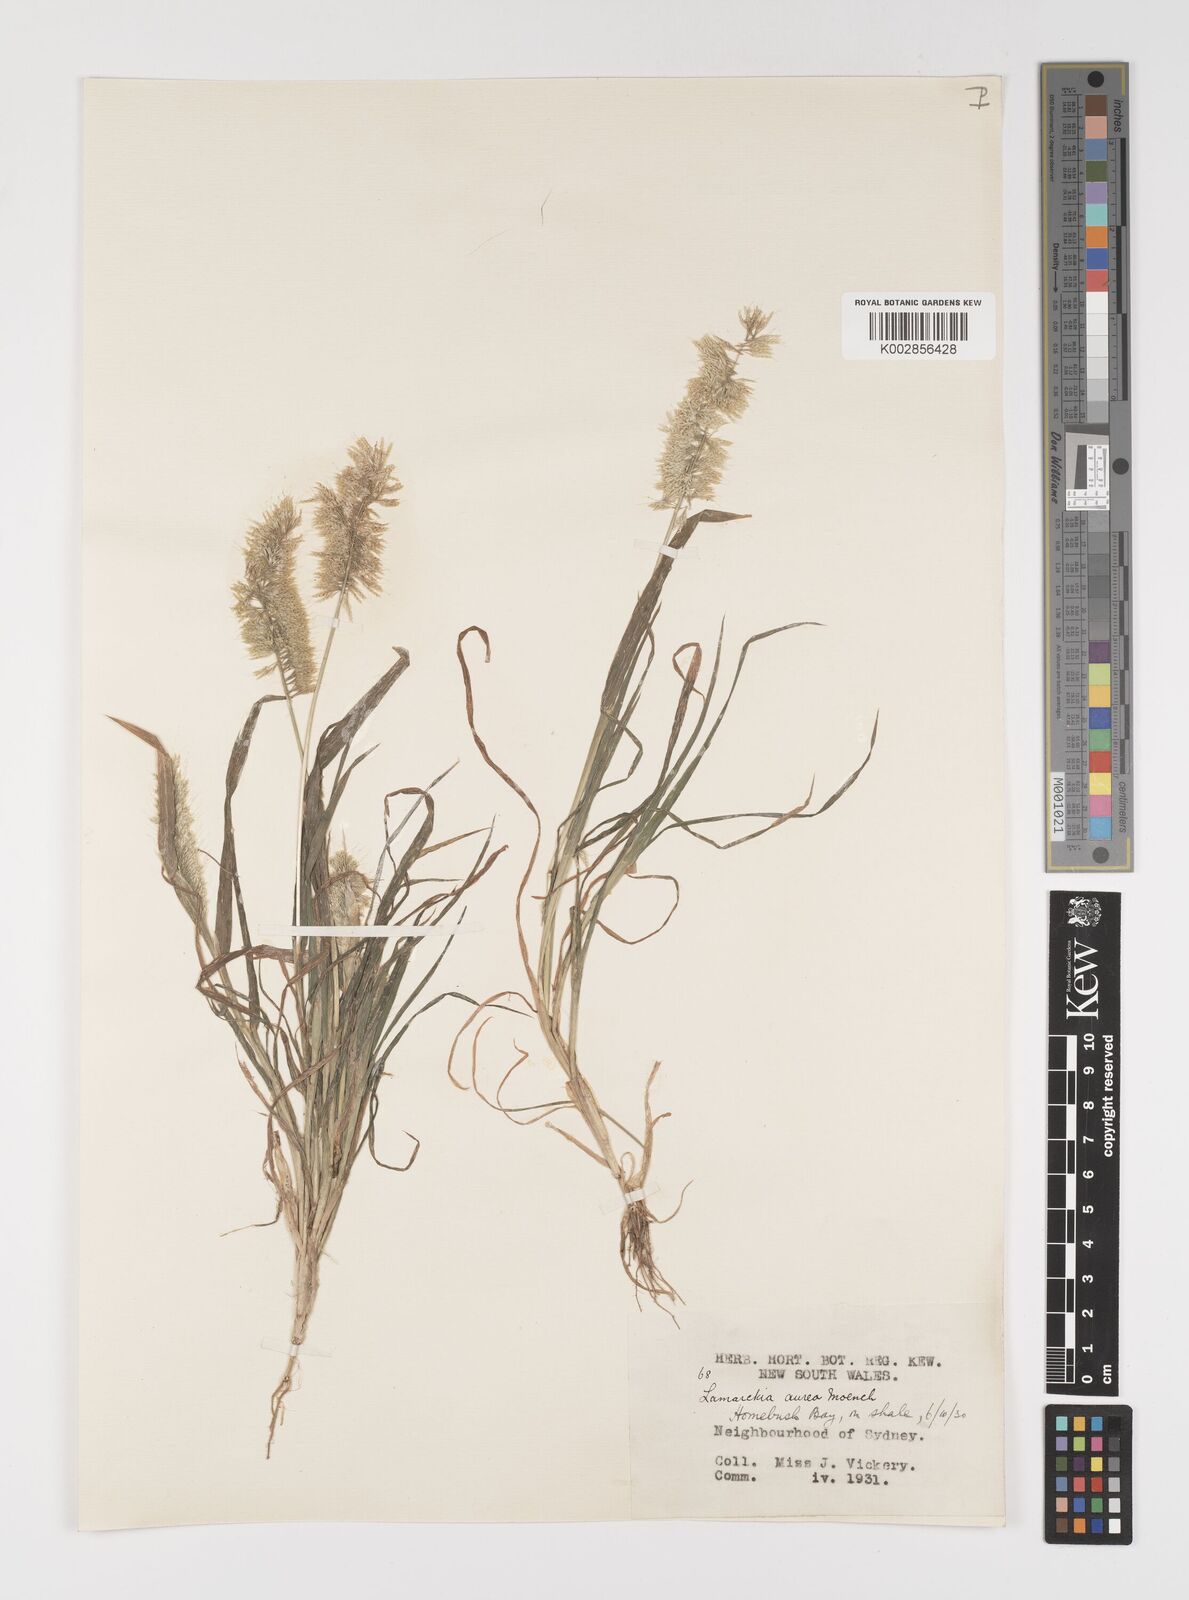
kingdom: Plantae
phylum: Tracheophyta
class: Liliopsida
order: Poales
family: Poaceae
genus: Lamarckia
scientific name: Lamarckia aurea
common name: Golden dog's-tail
